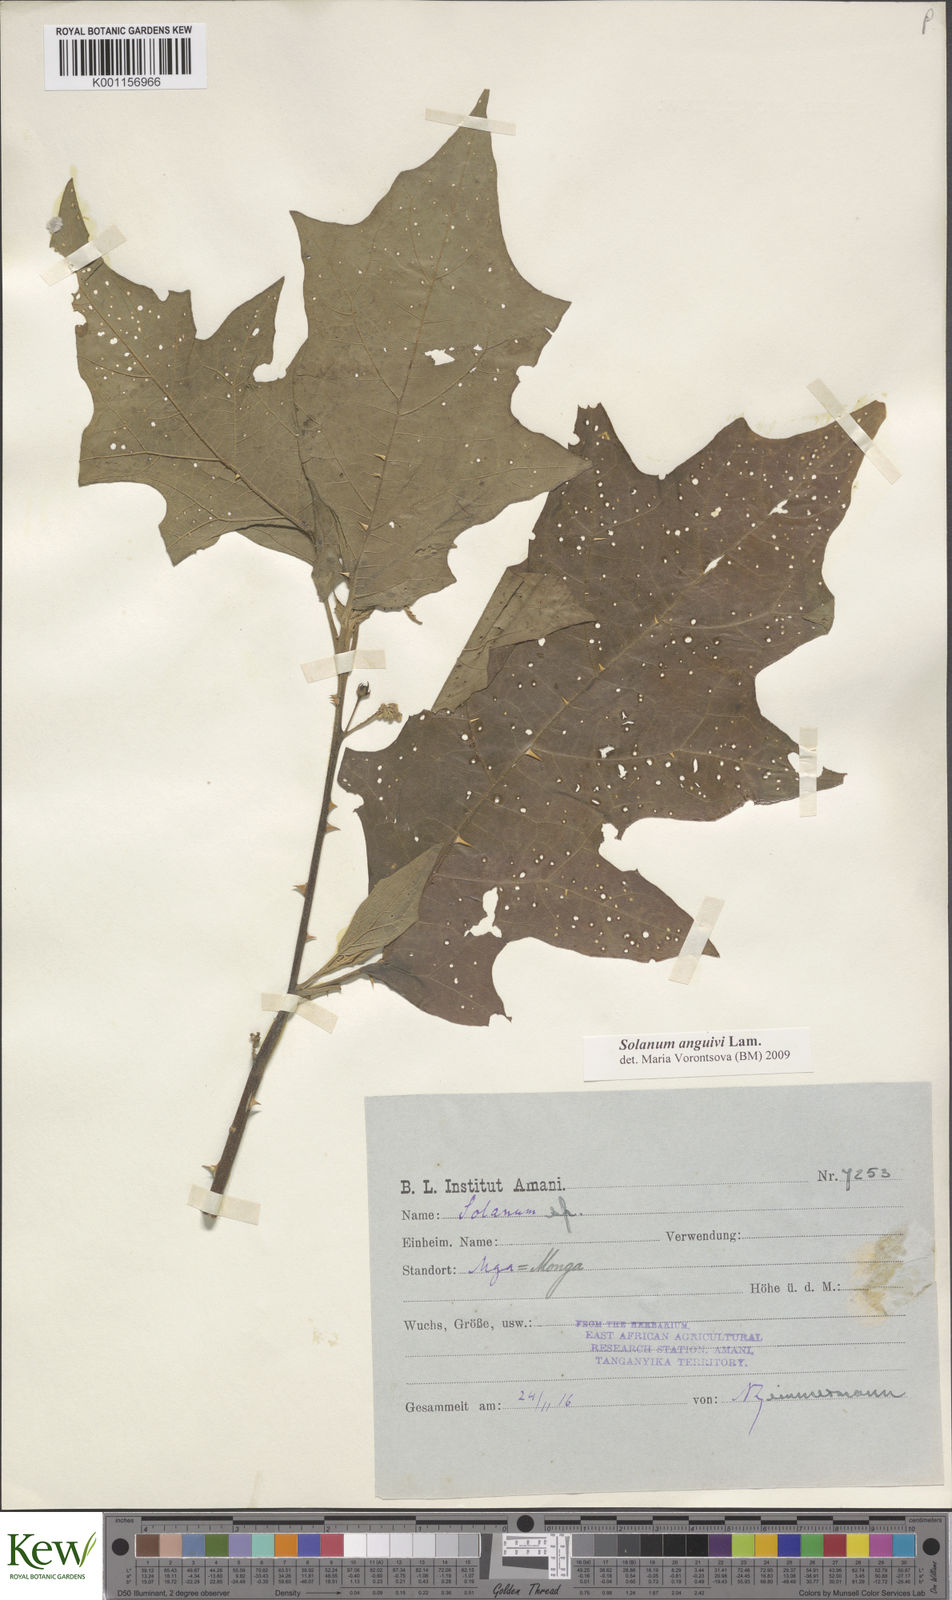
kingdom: Plantae
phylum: Tracheophyta
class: Magnoliopsida
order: Solanales
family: Solanaceae
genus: Solanum
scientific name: Solanum anguivi
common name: Forest bitterberry
